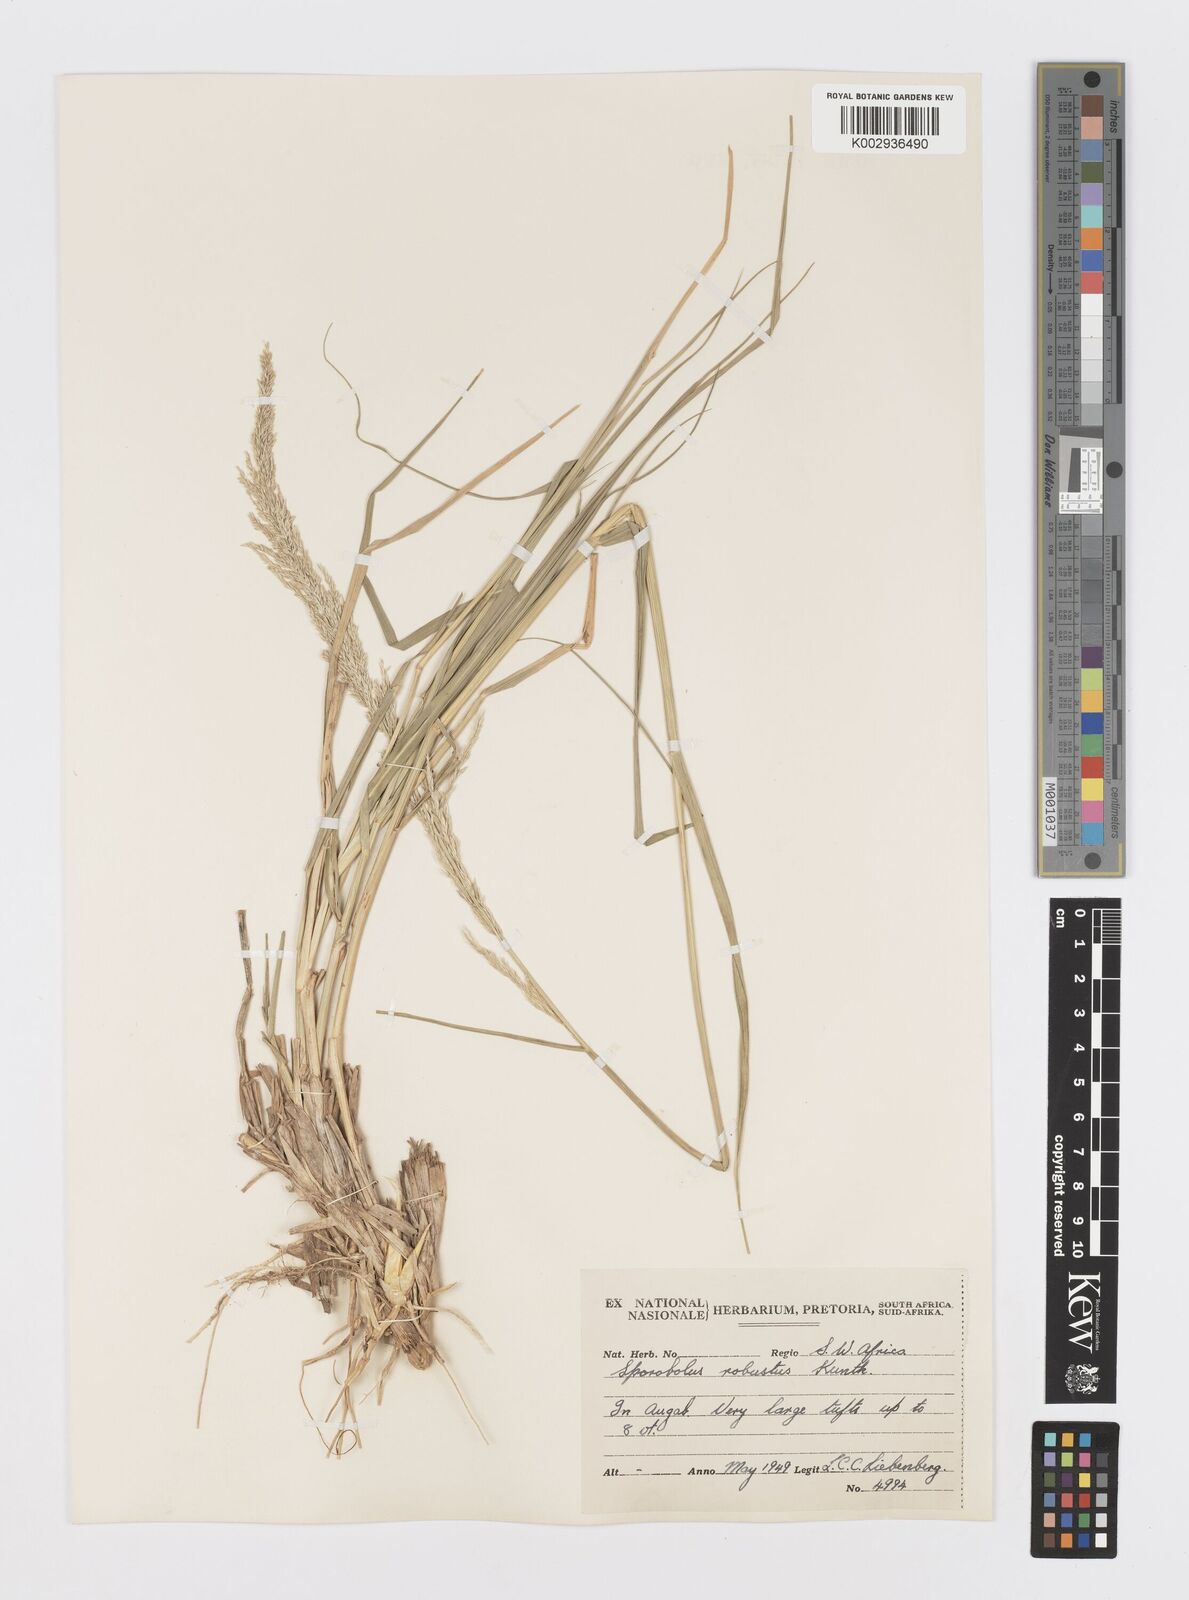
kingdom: Plantae
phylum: Tracheophyta
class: Liliopsida
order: Poales
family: Poaceae
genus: Sporobolus
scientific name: Sporobolus consimilis
